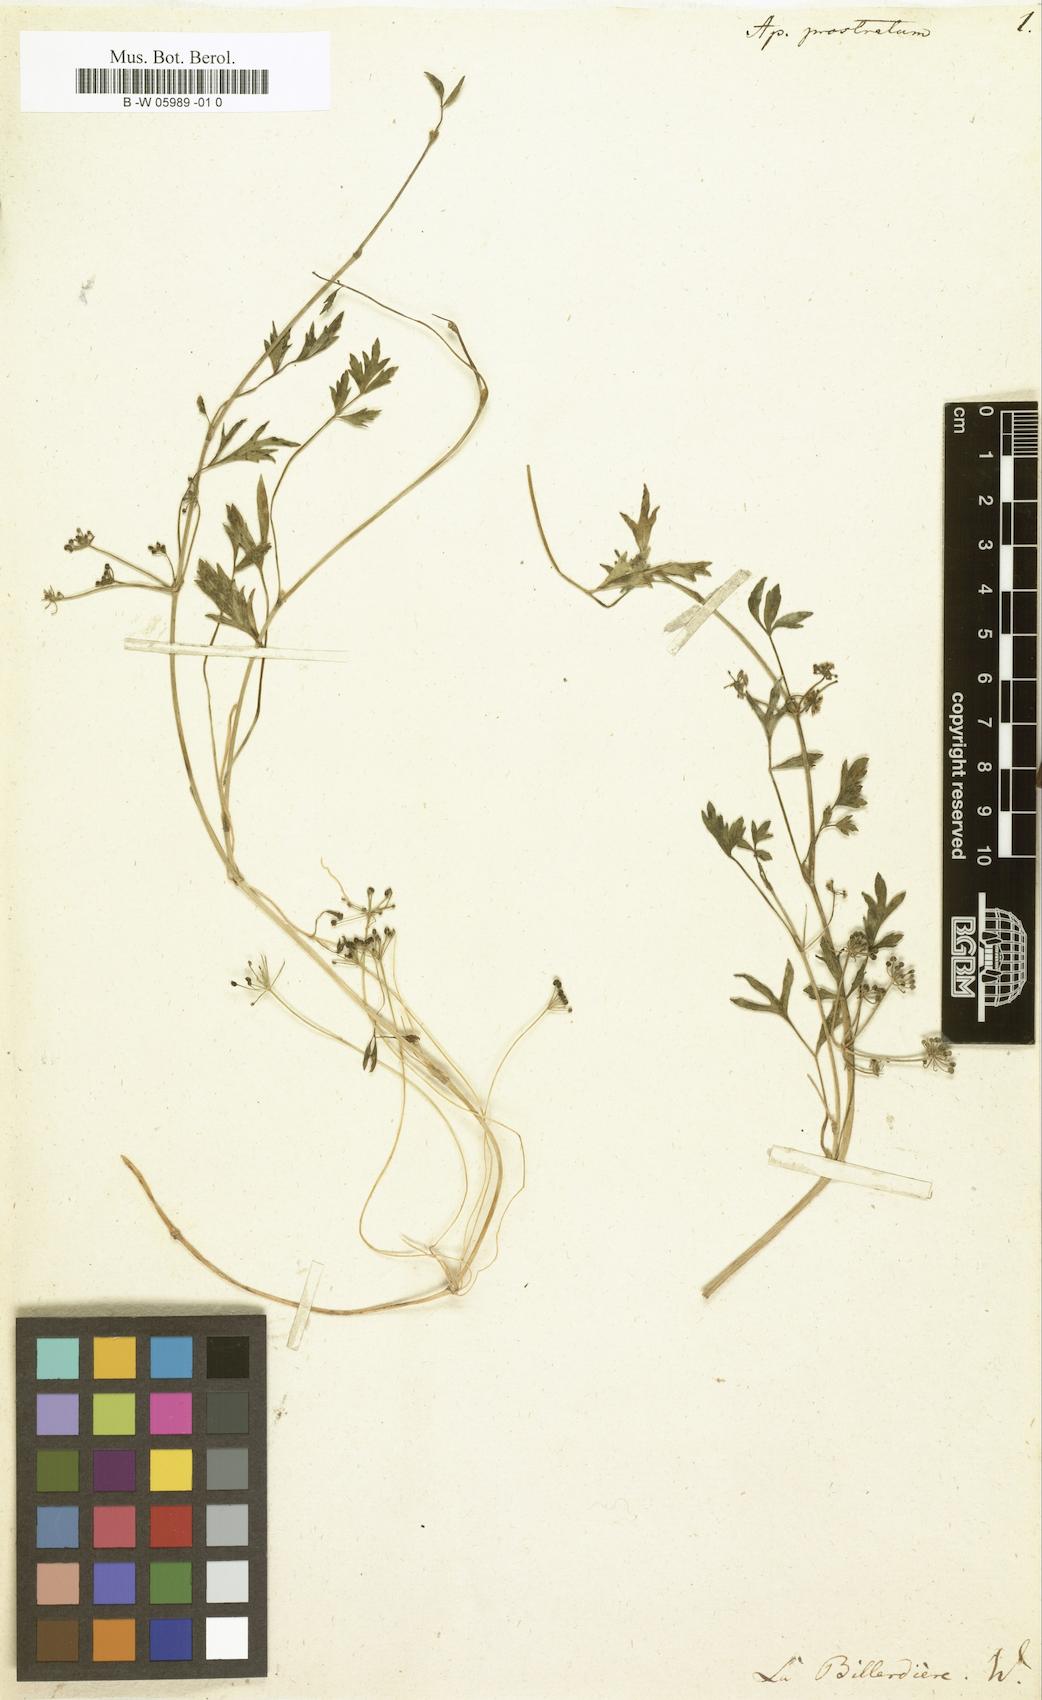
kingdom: Plantae
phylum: Tracheophyta
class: Magnoliopsida
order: Apiales
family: Apiaceae
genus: Apium
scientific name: Apium prostratum
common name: Prostrate marshwort
